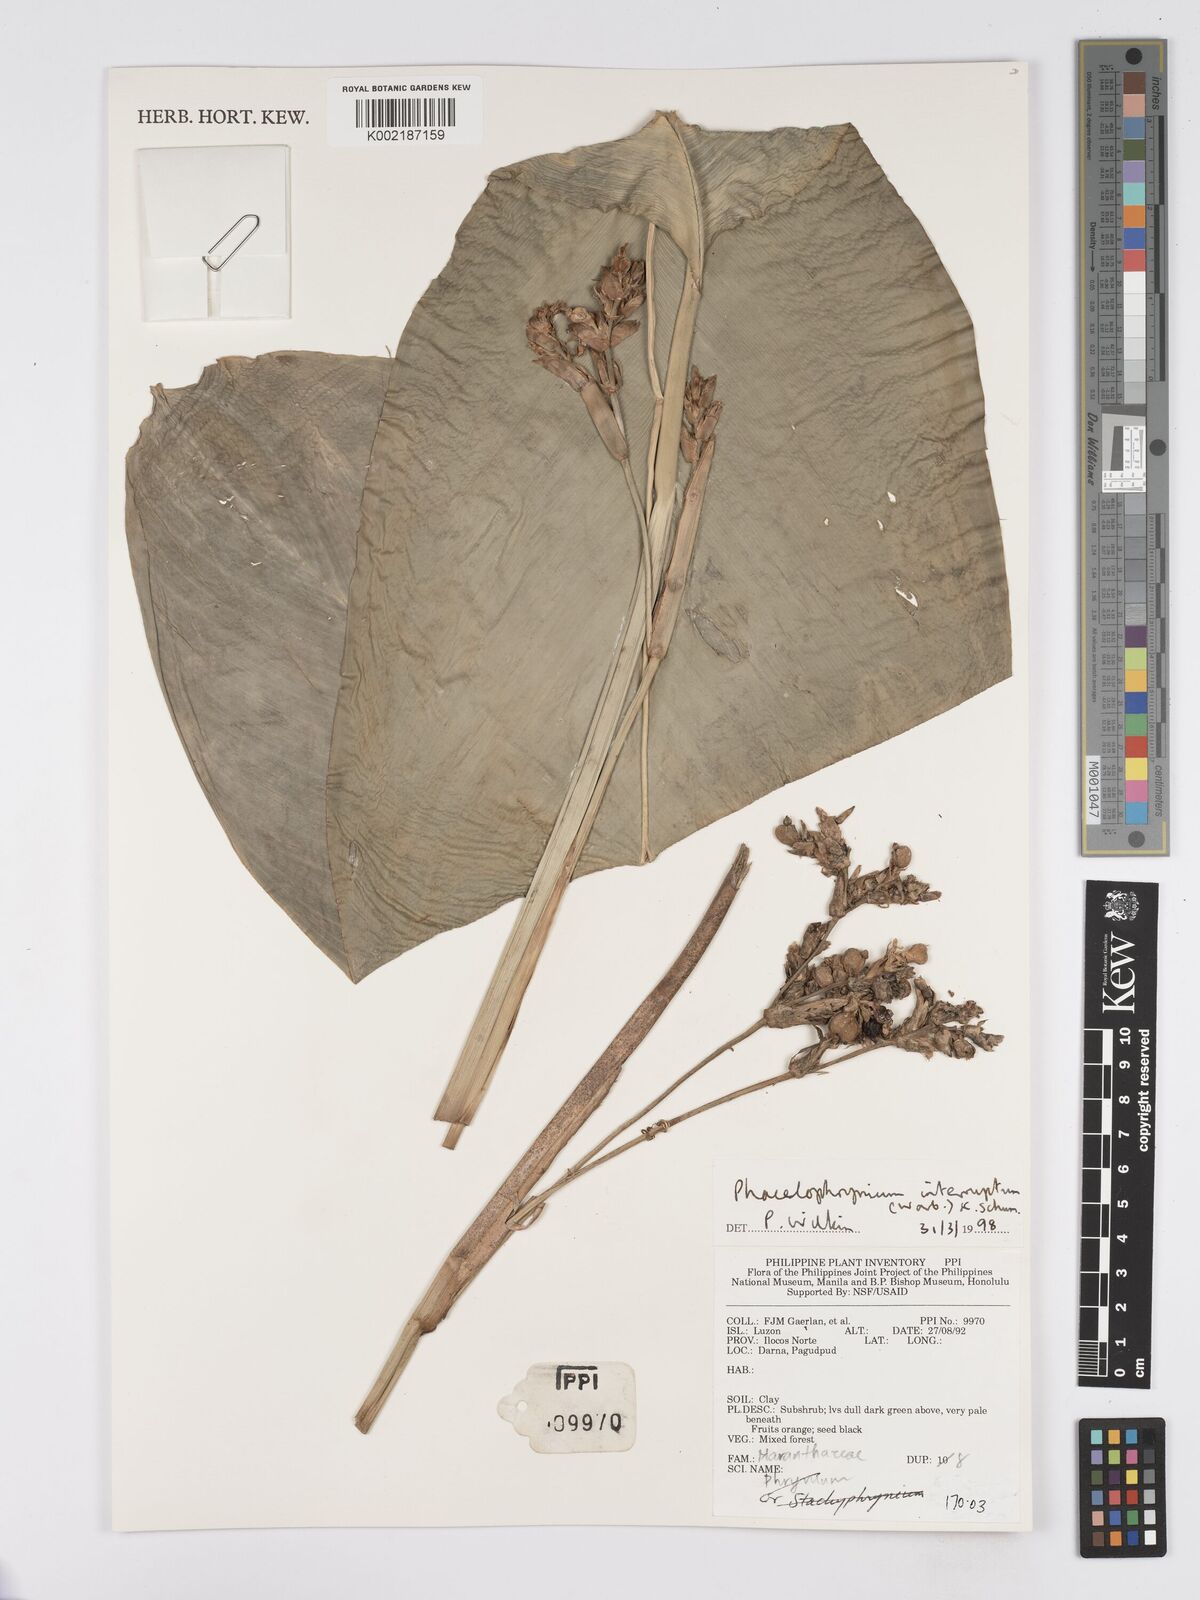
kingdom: Plantae
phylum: Tracheophyta
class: Liliopsida
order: Zingiberales
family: Marantaceae
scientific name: Marantaceae
